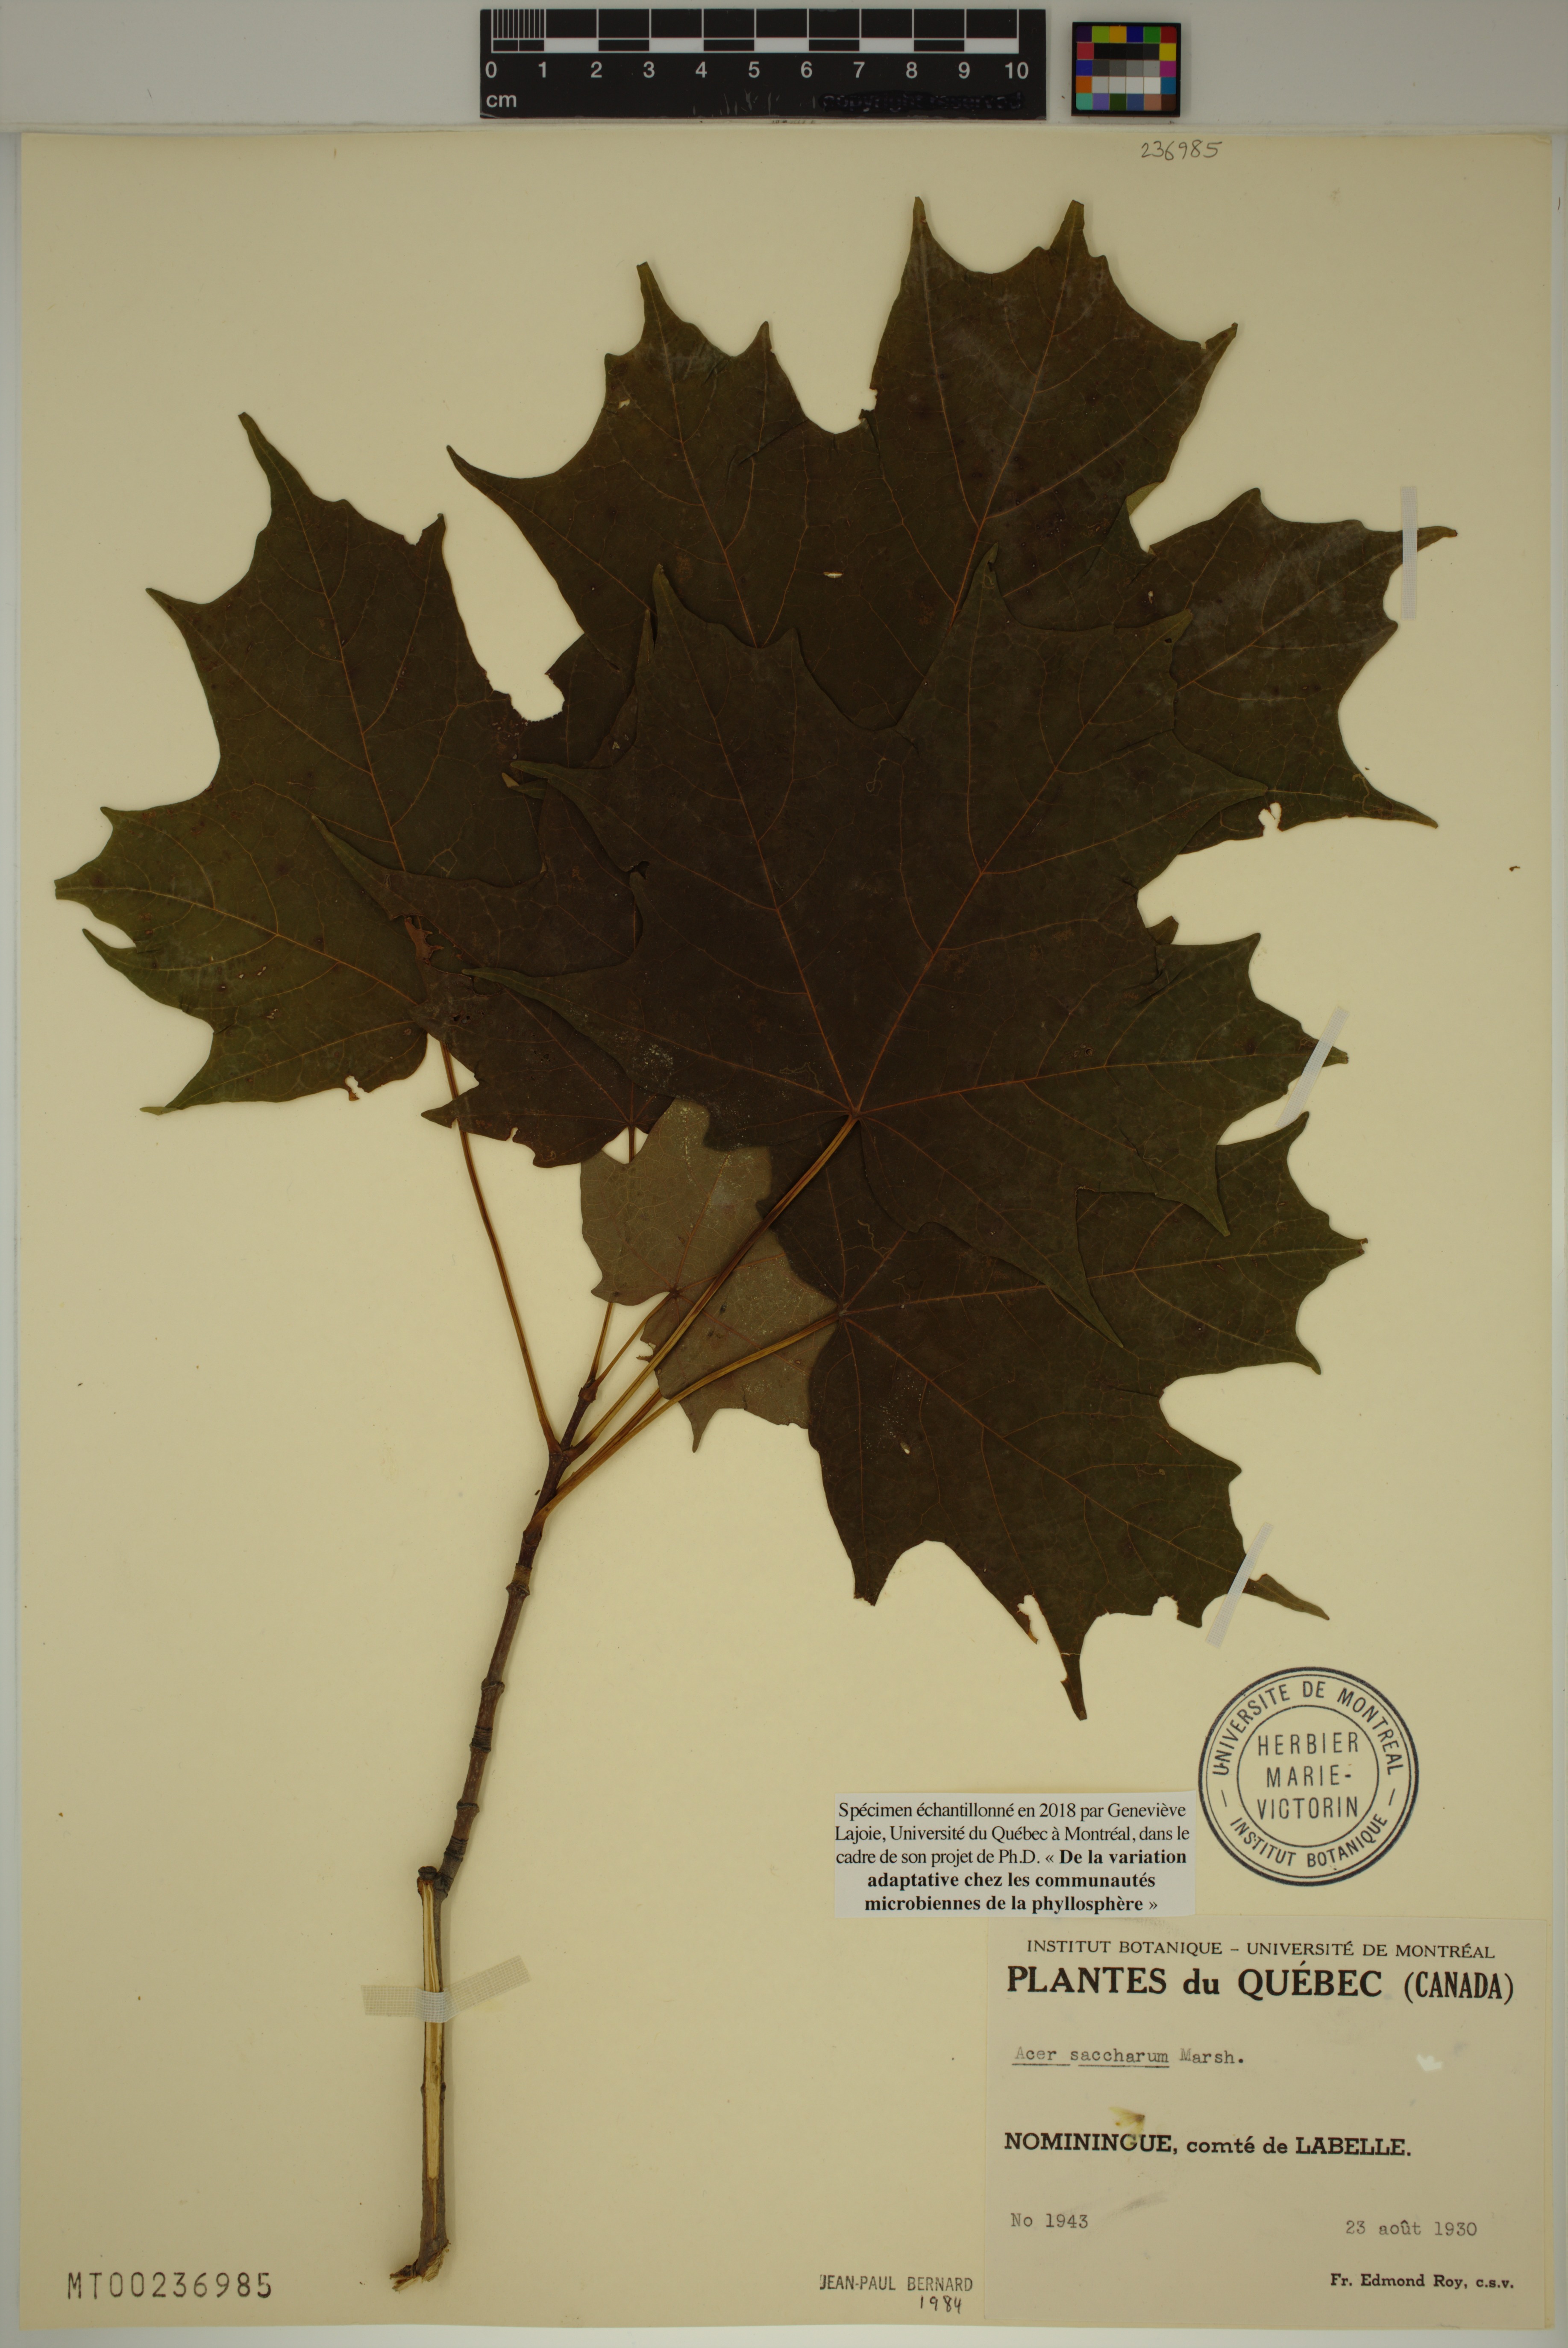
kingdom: Plantae
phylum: Tracheophyta
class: Magnoliopsida
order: Sapindales
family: Sapindaceae
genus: Acer
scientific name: Acer saccharum
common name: Sugar maple
